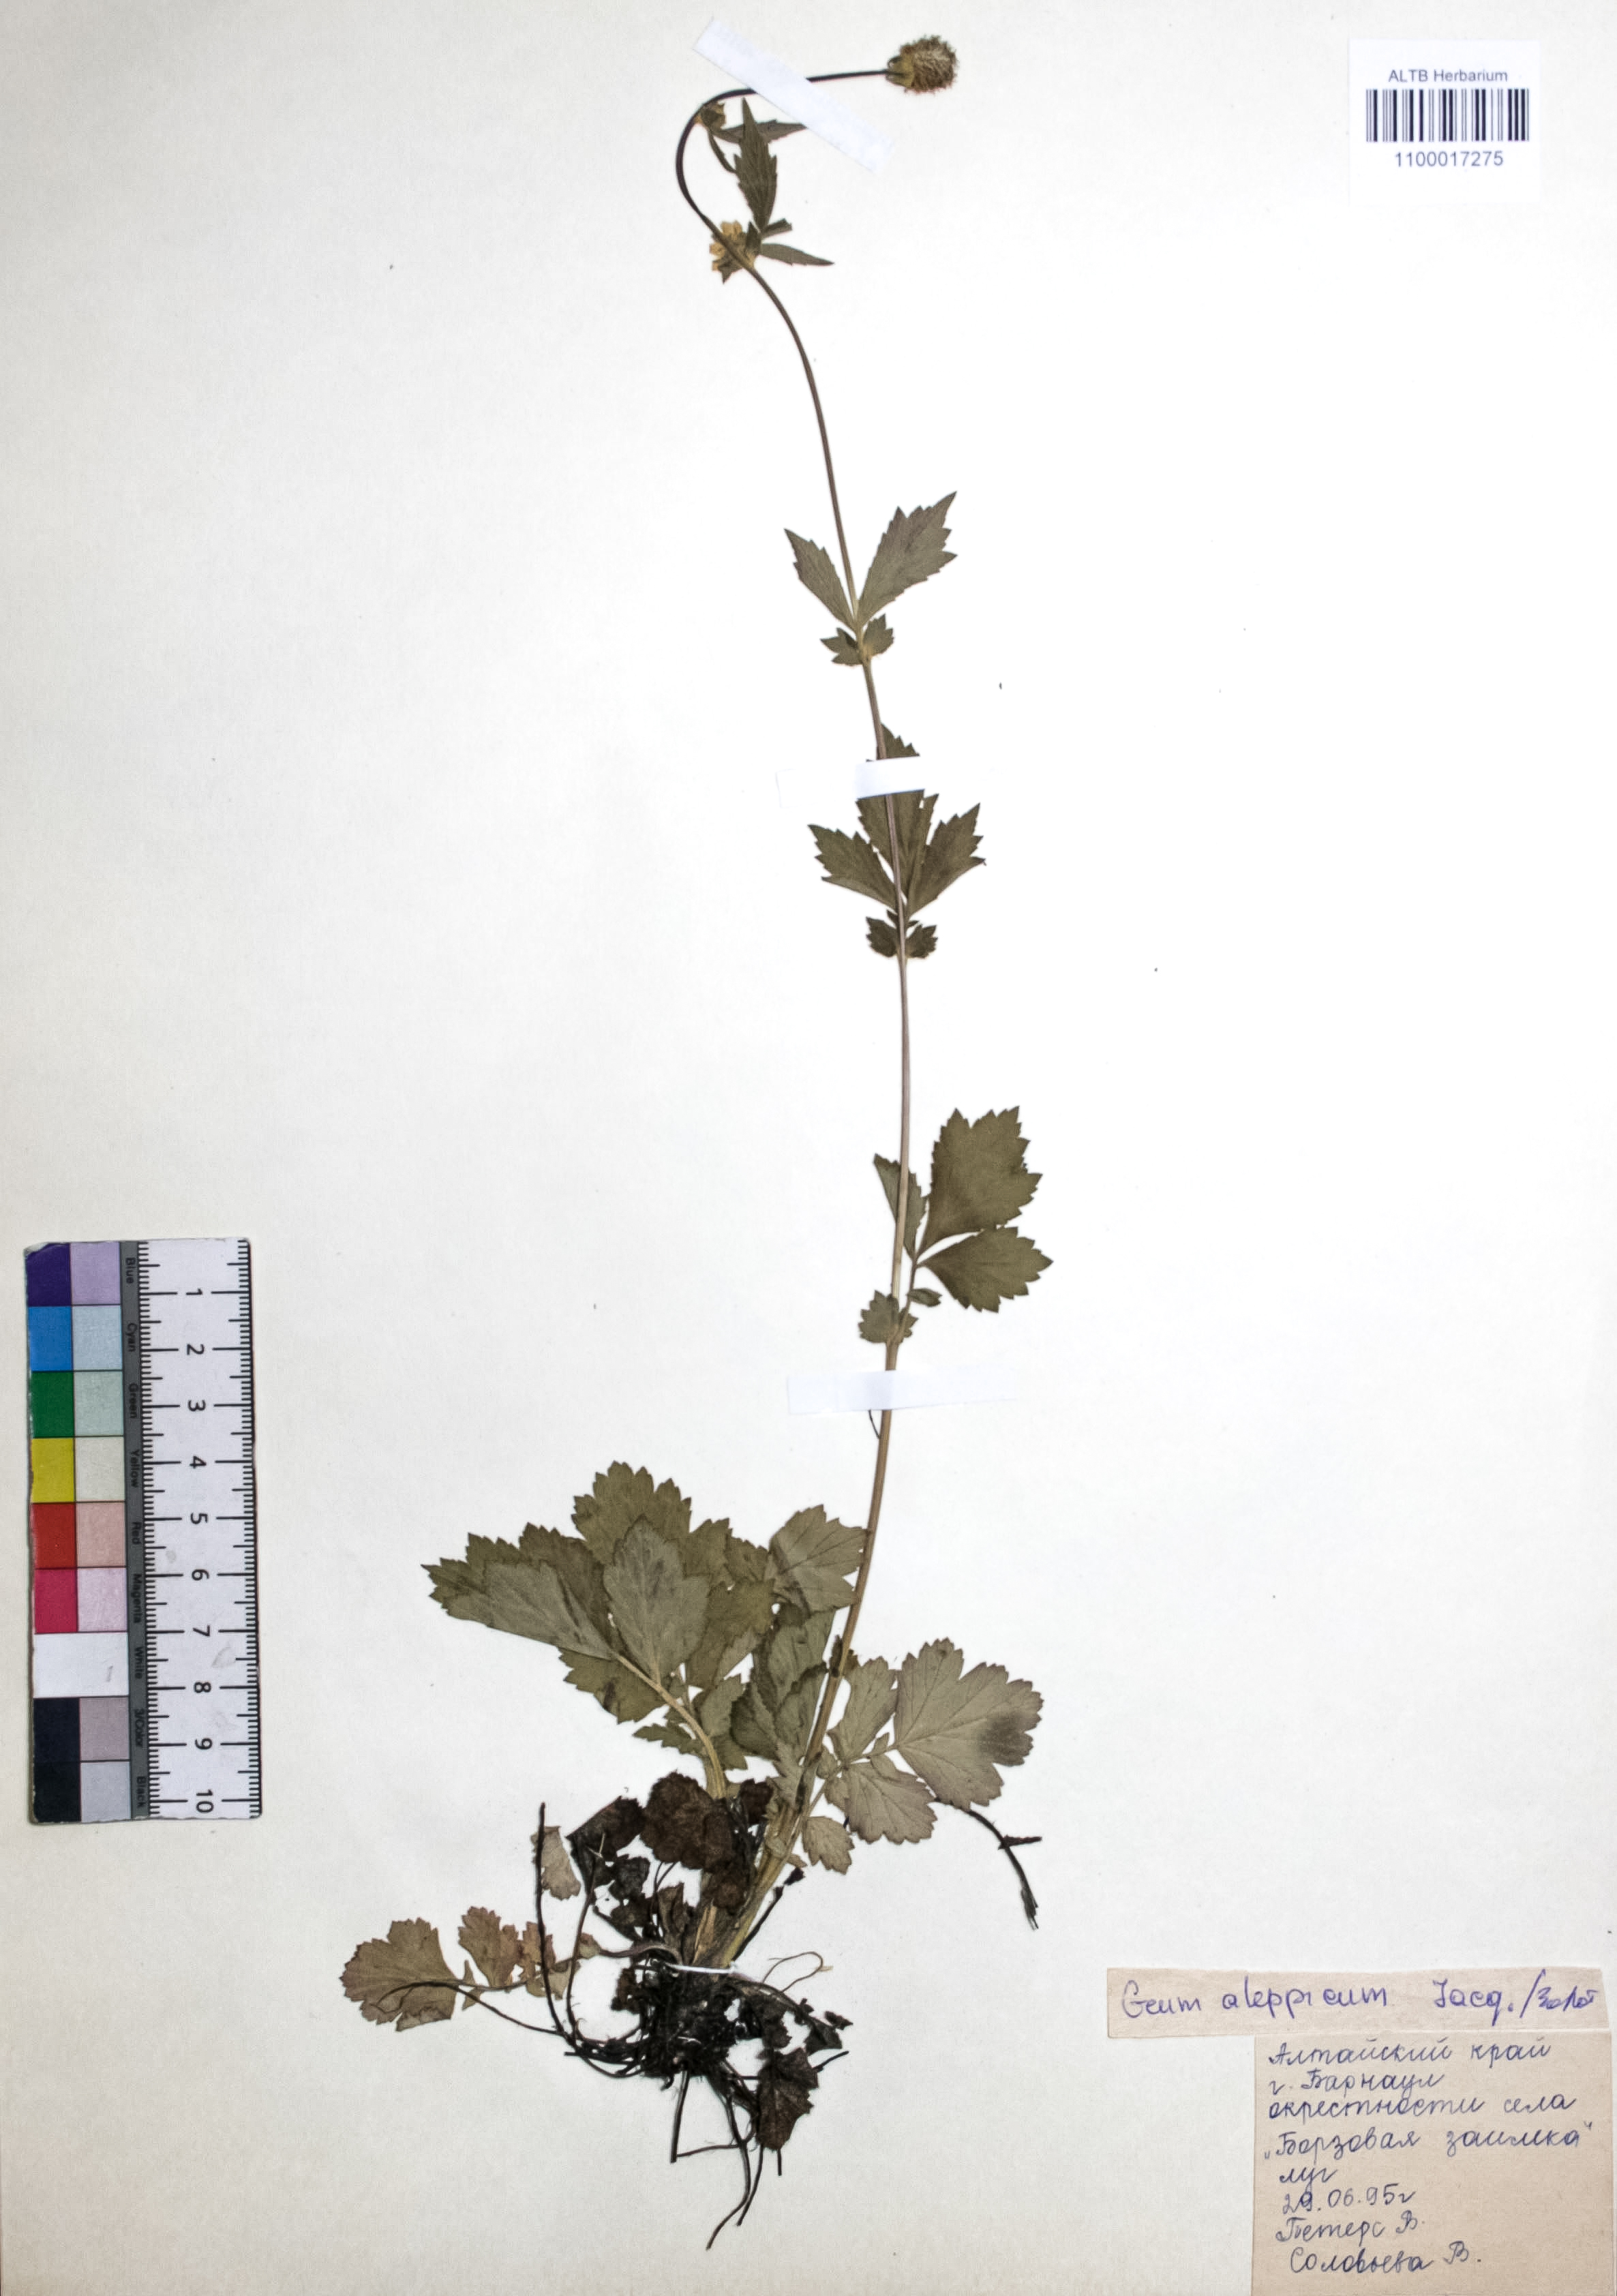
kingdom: Plantae
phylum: Tracheophyta
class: Magnoliopsida
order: Rosales
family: Rosaceae
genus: Geum
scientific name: Geum aleppicum
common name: Yellow avens
